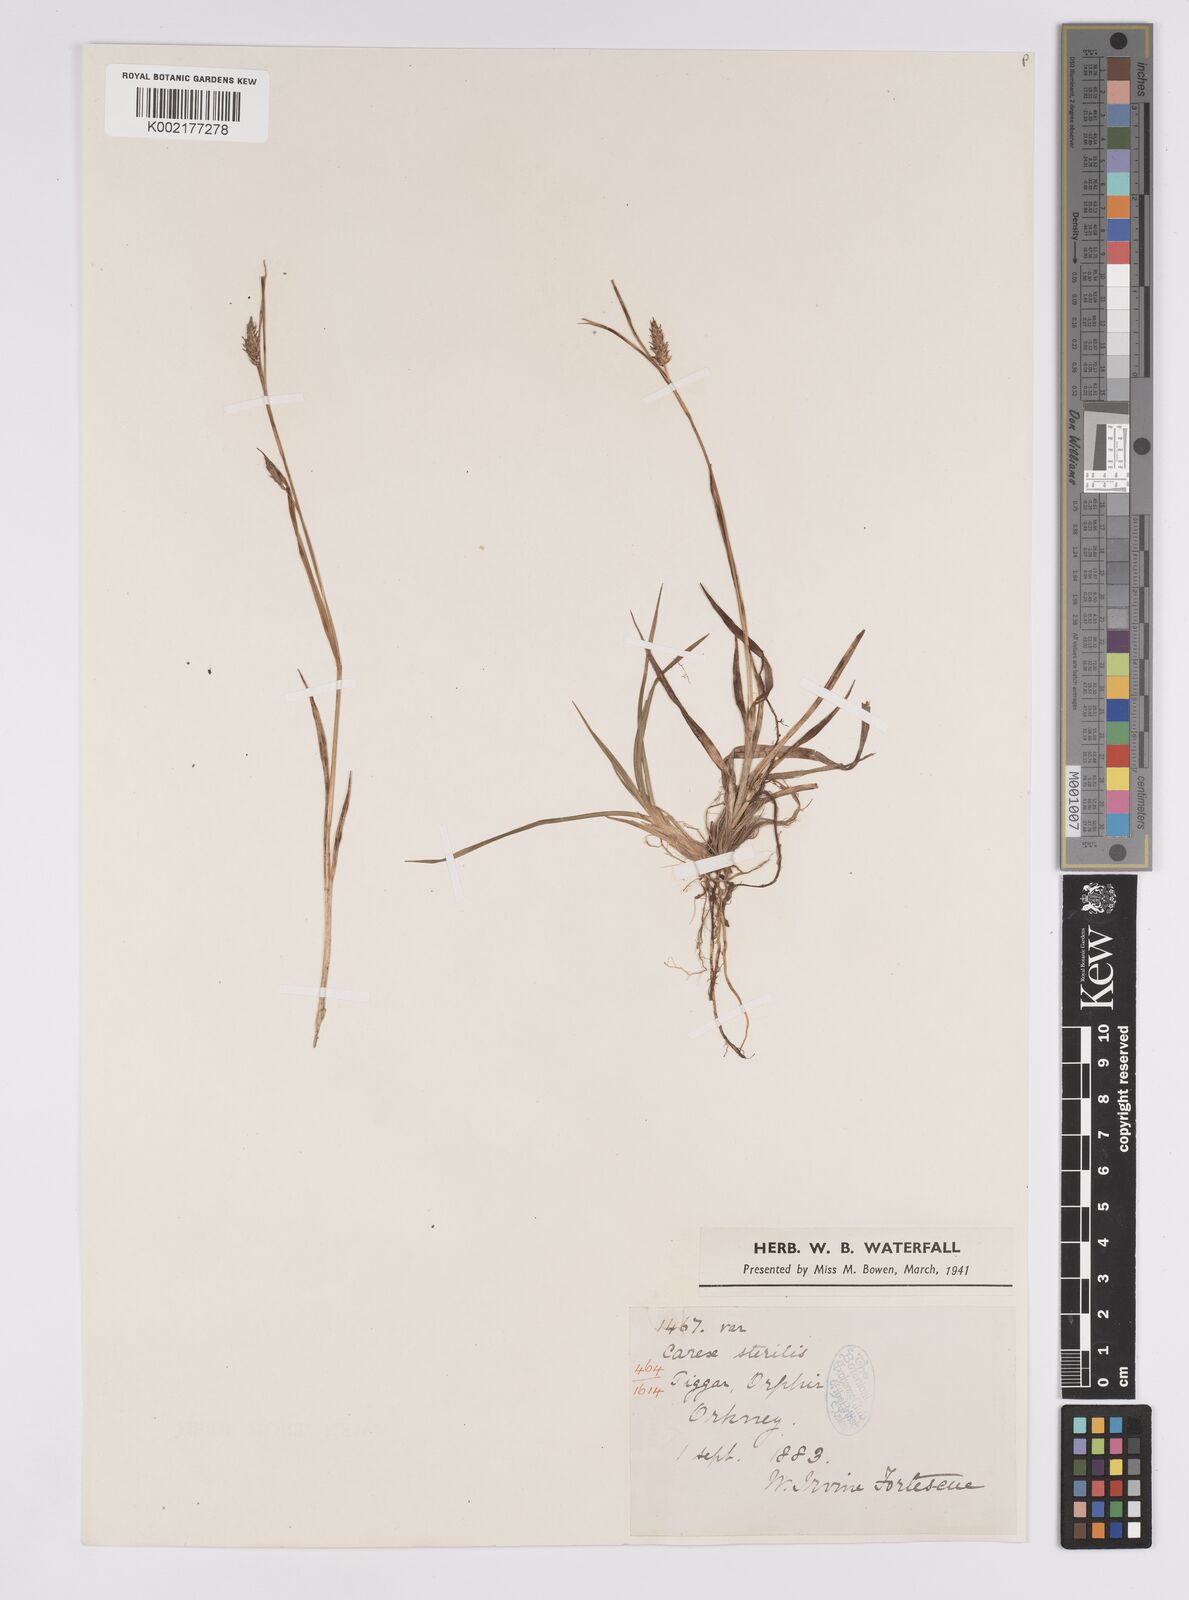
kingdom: Plantae
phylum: Tracheophyta
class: Liliopsida
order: Poales
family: Cyperaceae
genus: Carex
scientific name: Carex hostiana
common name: Tawny sedge
